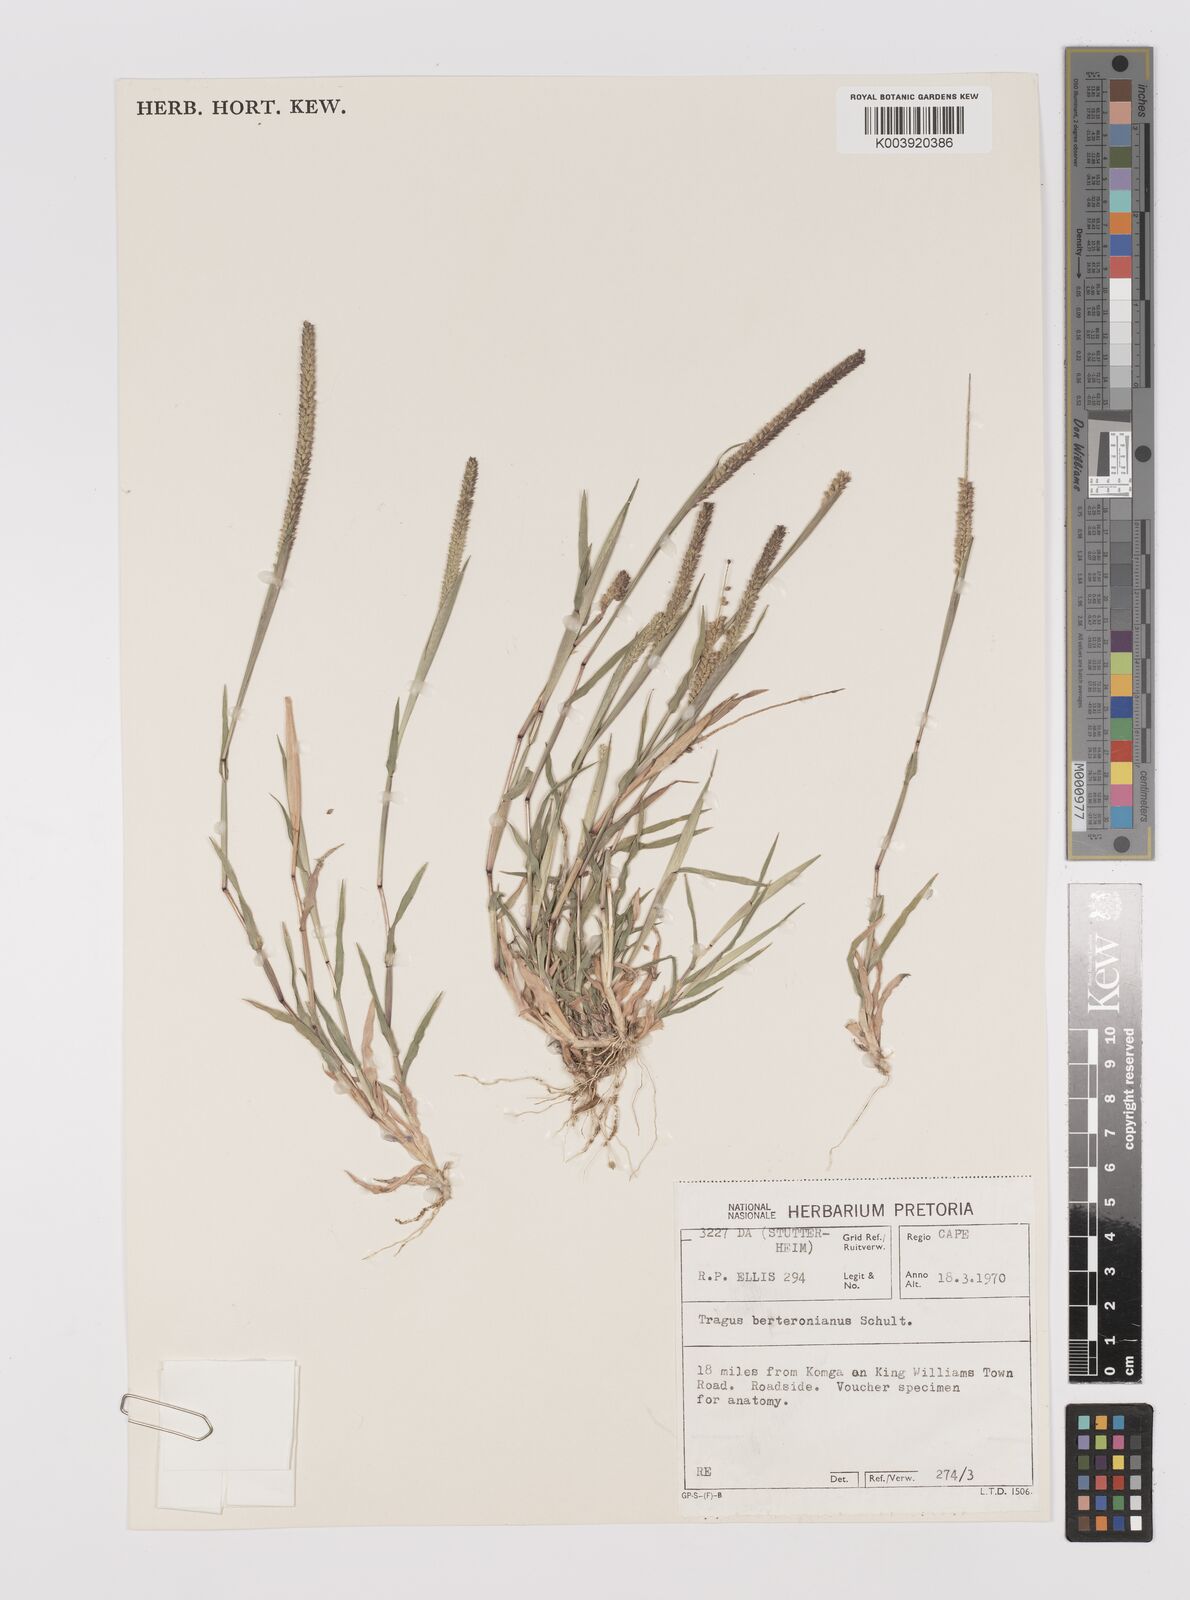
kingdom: Plantae
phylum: Tracheophyta
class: Liliopsida
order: Poales
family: Poaceae
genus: Tragus
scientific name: Tragus berteronianus
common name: African bur-grass
